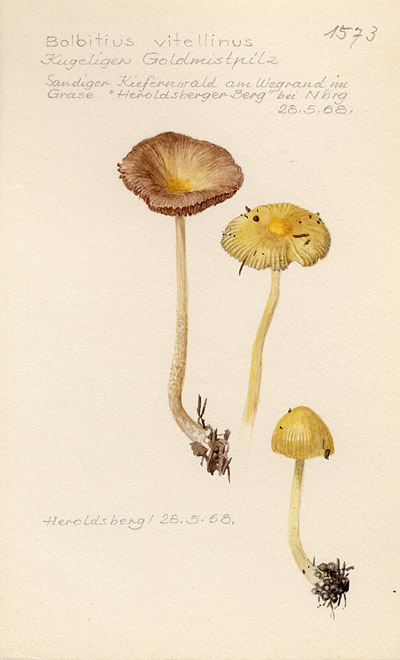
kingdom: Fungi
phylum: Basidiomycota
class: Agaricomycetes
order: Agaricales
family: Bolbitiaceae
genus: Bolbitius
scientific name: Bolbitius titubans
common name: Yellow fieldcap
